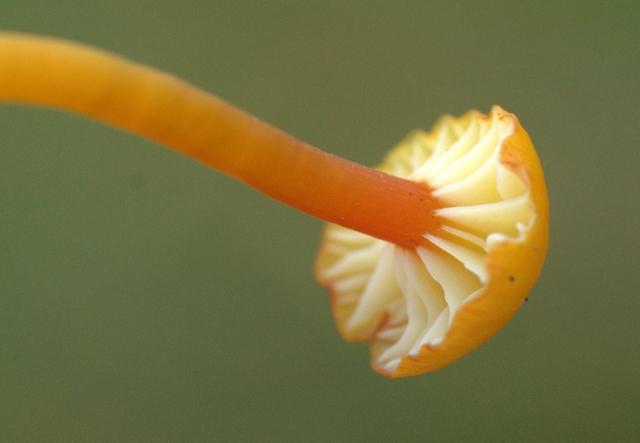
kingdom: Fungi
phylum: Basidiomycota
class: Agaricomycetes
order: Agaricales
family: Hygrophoraceae
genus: Hygrocybe
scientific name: Hygrocybe insipida
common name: liden vokshat
